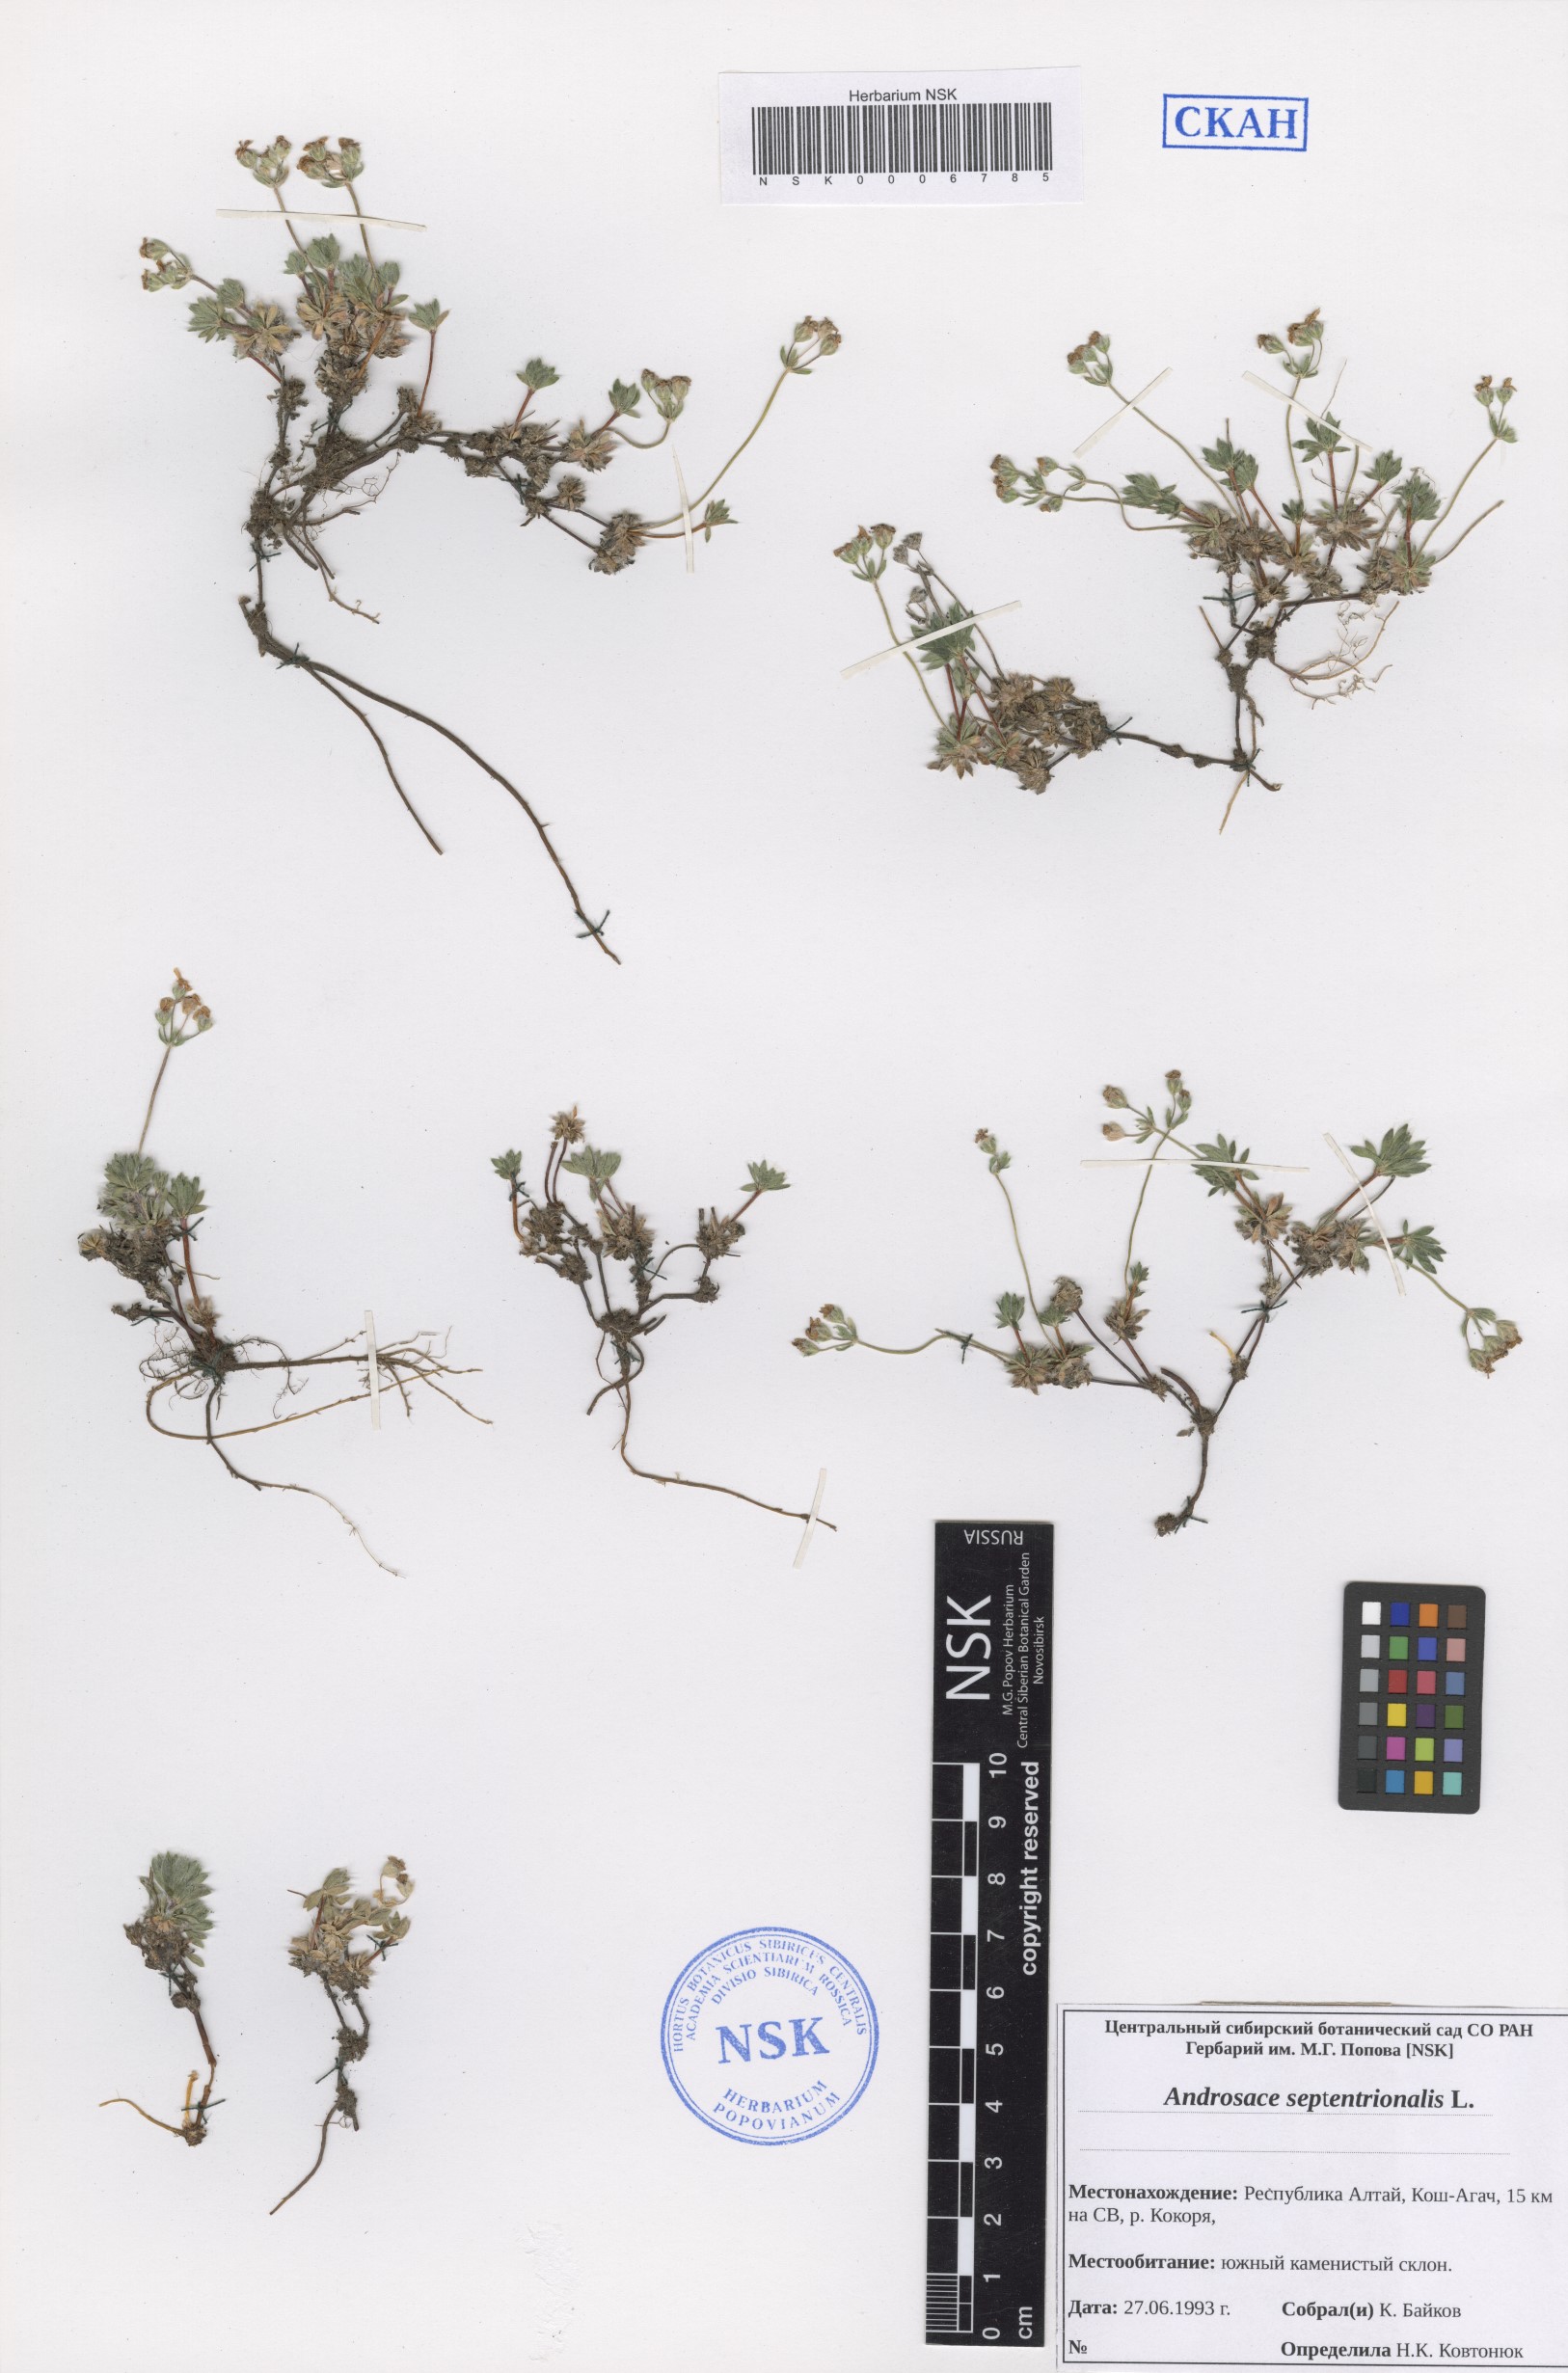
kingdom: Plantae
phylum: Tracheophyta
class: Magnoliopsida
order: Ericales
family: Primulaceae
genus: Androsace
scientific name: Androsace septentrionalis
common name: Hairy northern fairy-candelabra
